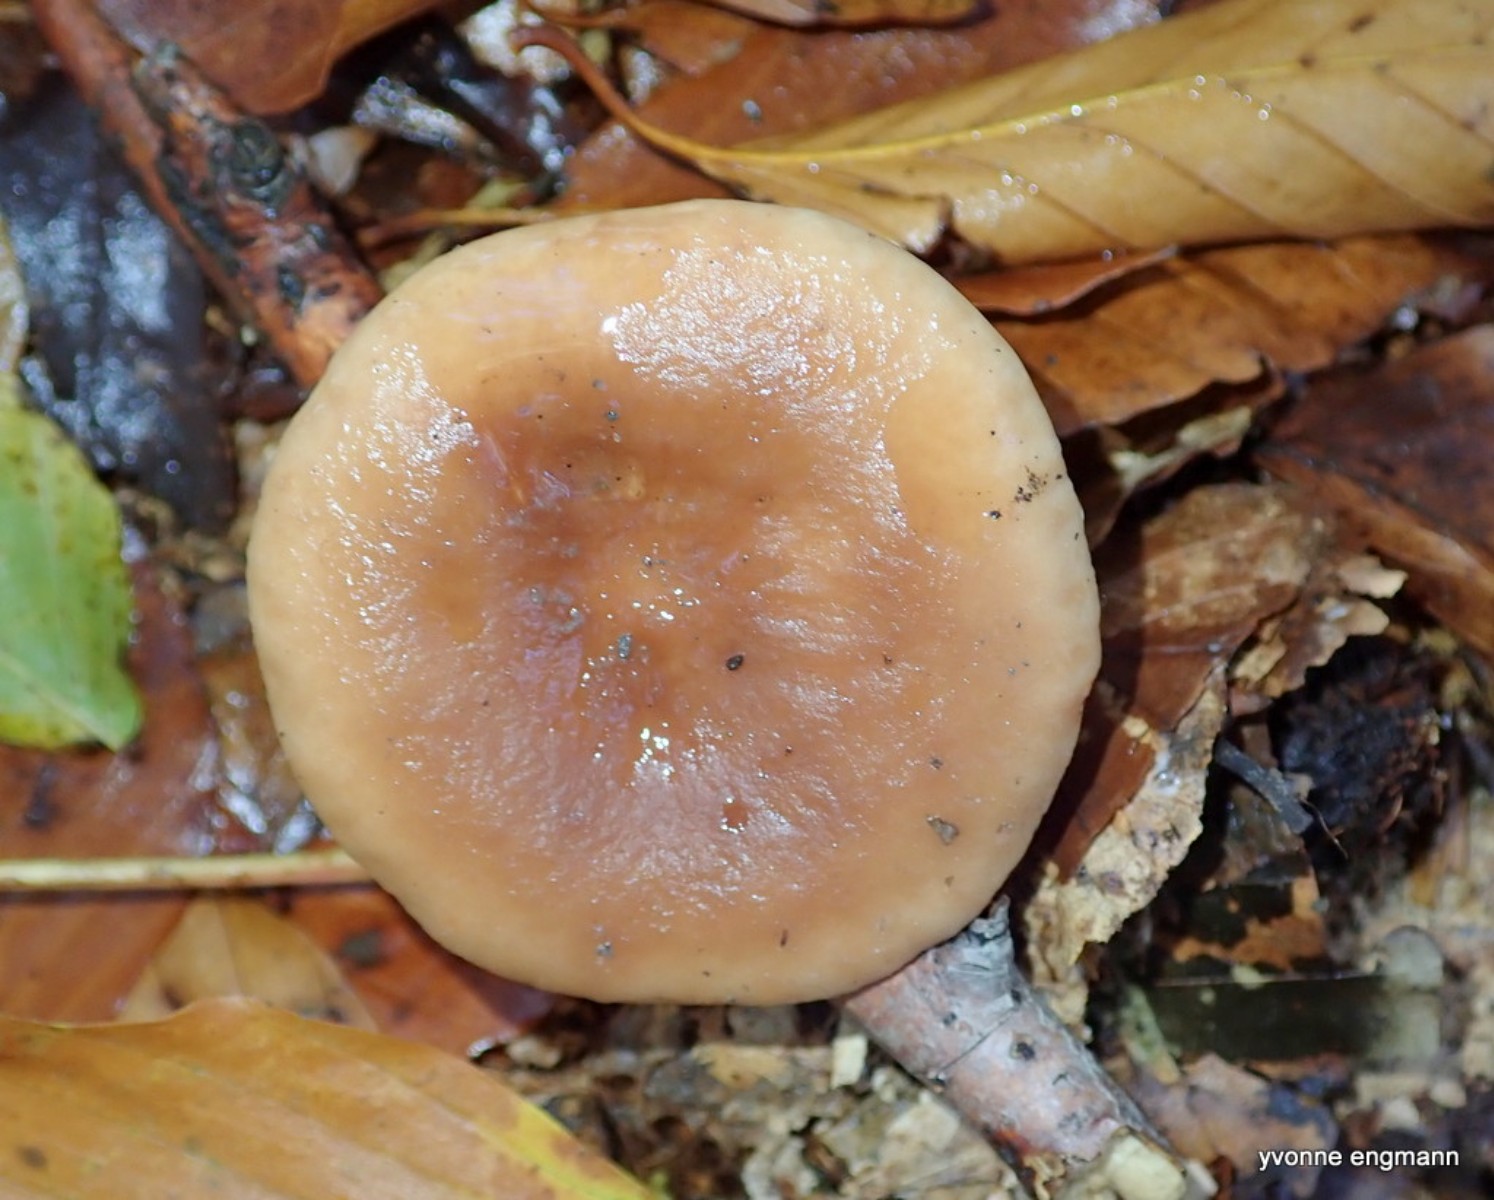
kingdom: Fungi
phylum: Basidiomycota
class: Agaricomycetes
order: Russulales
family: Russulaceae
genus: Lactarius
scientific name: Lactarius subdulcis
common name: sødlig mælkehat
